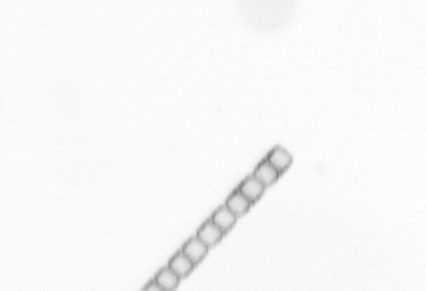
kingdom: Chromista
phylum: Ochrophyta
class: Bacillariophyceae
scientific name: Bacillariophyceae
